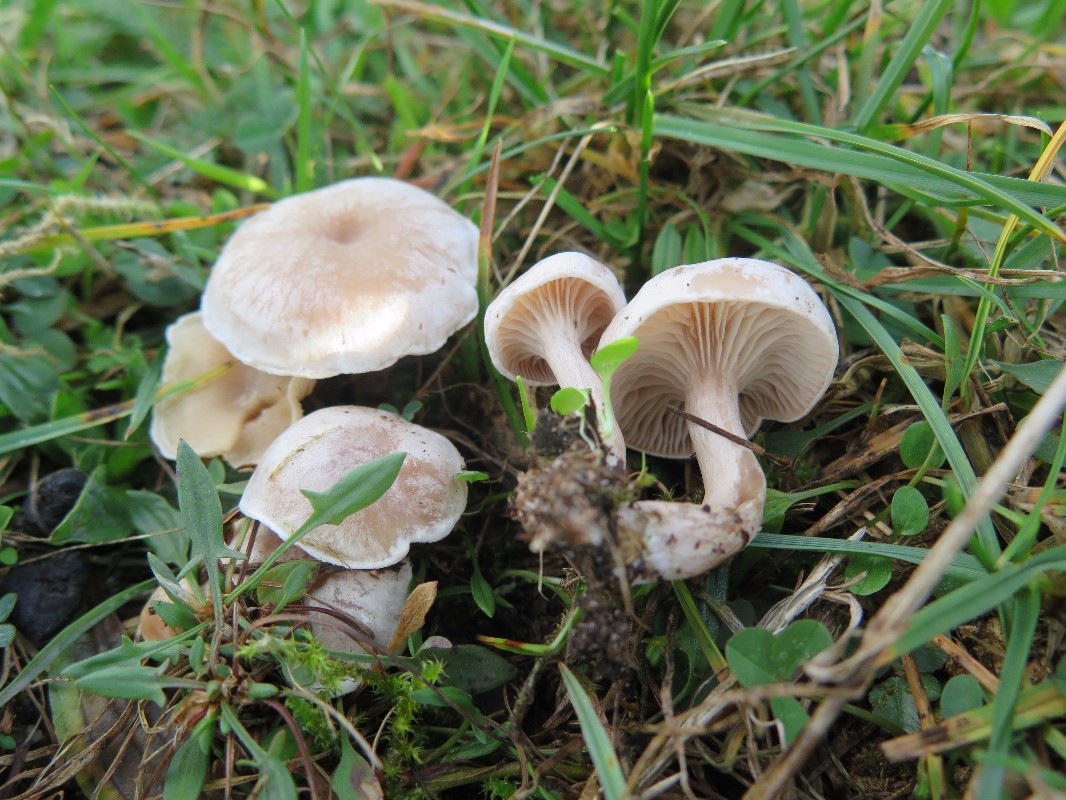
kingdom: Fungi
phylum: Basidiomycota
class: Agaricomycetes
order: Agaricales
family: Tricholomataceae
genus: Clitocybe
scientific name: Clitocybe rivulosa
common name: eng-tragthat
